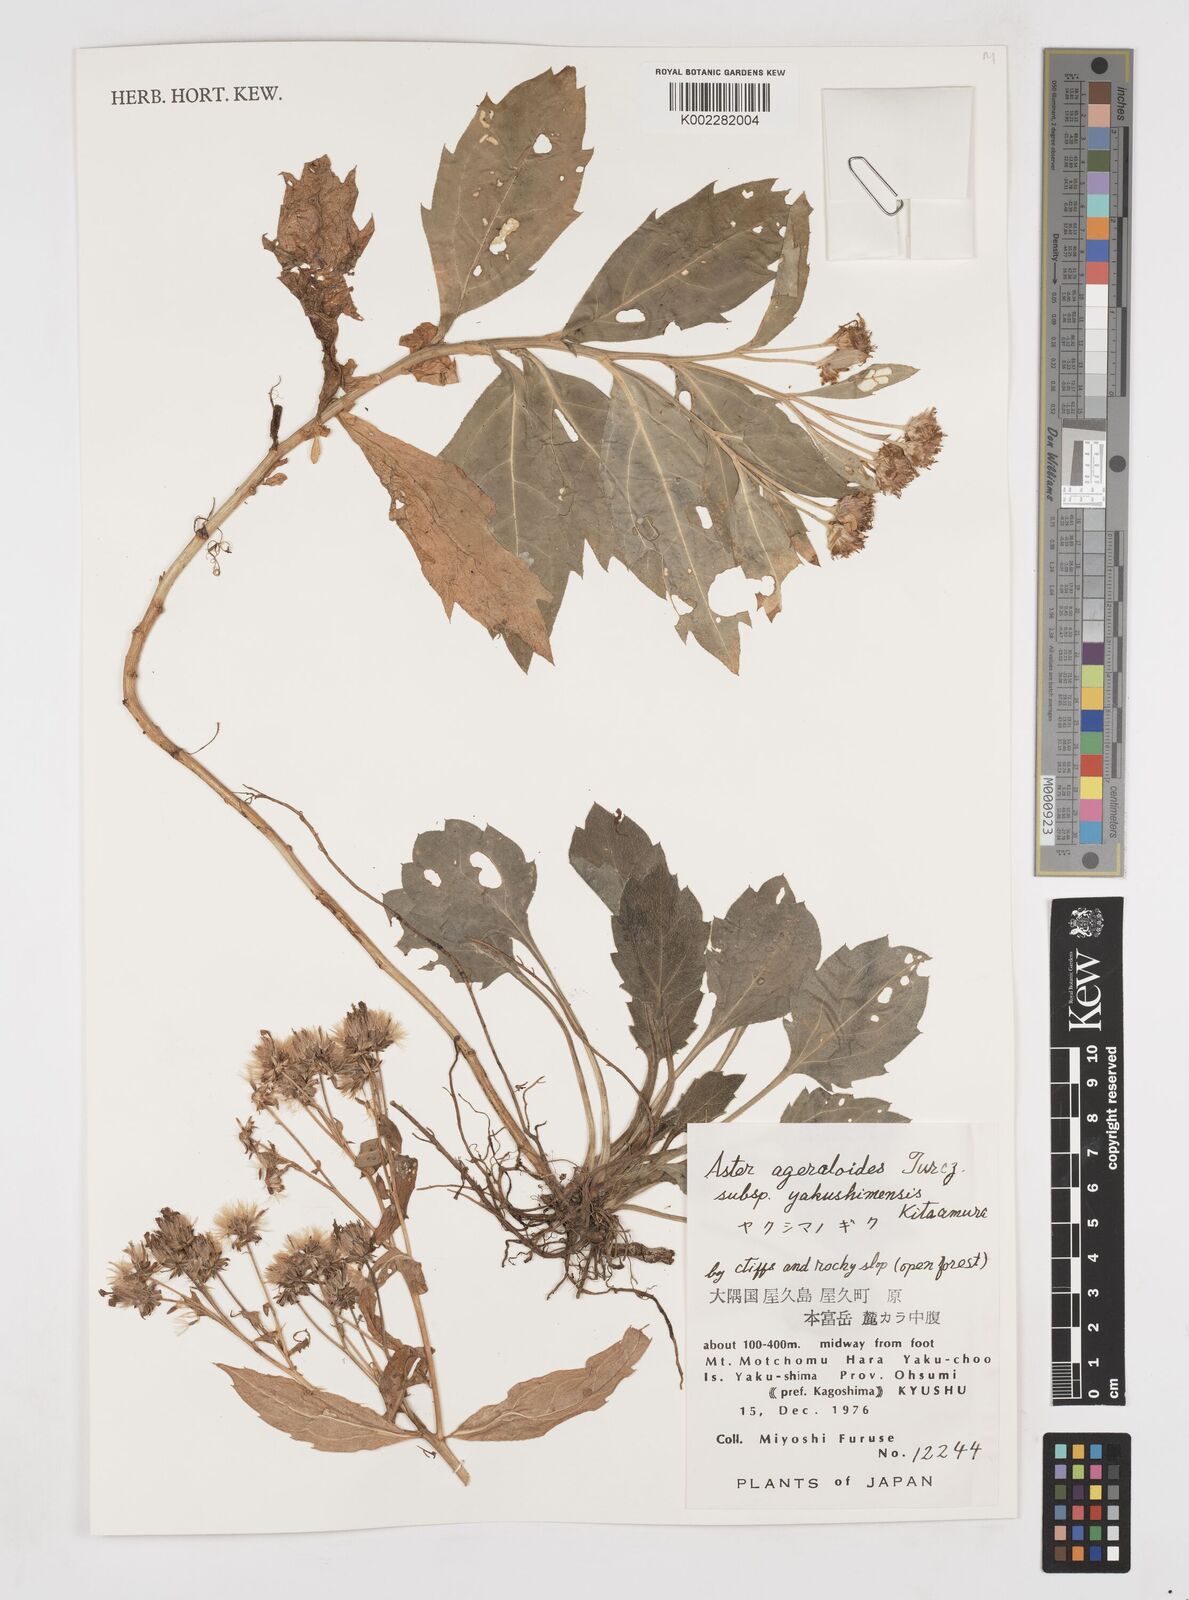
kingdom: Plantae
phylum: Tracheophyta
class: Magnoliopsida
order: Asterales
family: Asteraceae
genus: Aster
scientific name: Aster trinervius
